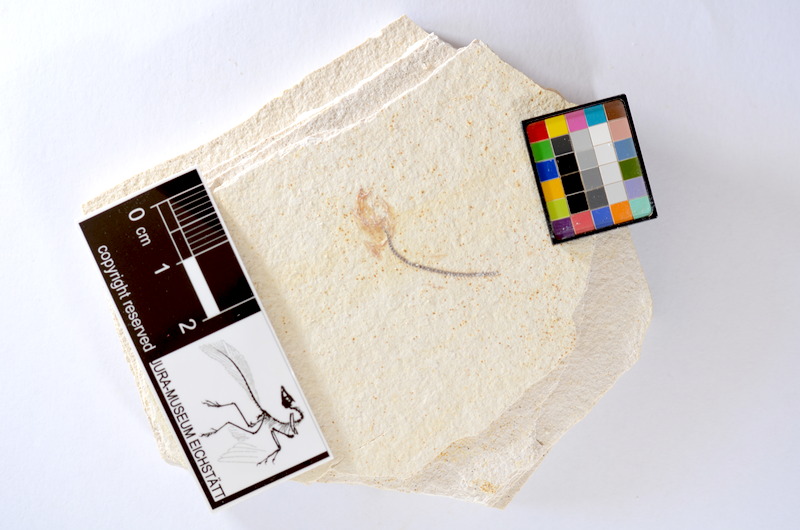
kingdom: Animalia
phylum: Chordata
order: Salmoniformes
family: Orthogonikleithridae
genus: Orthogonikleithrus
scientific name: Orthogonikleithrus hoelli
